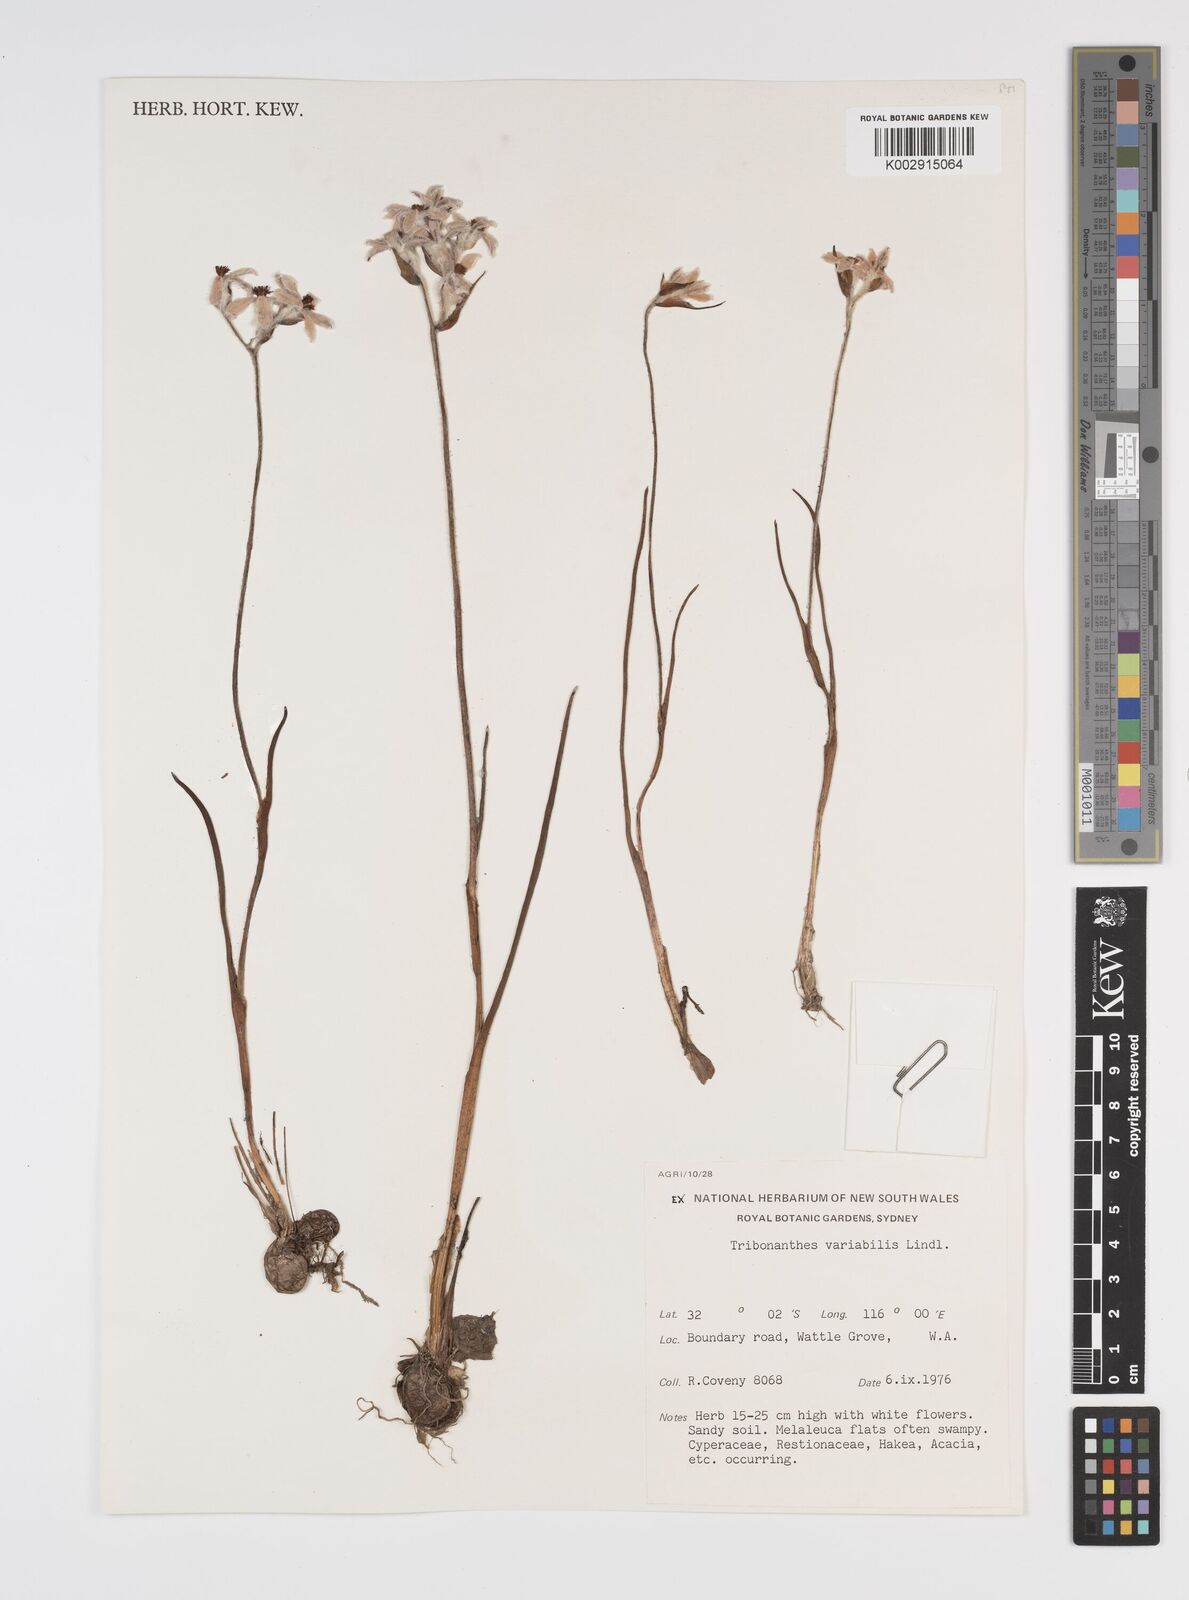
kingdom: Plantae
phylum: Tracheophyta
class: Liliopsida
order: Commelinales
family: Haemodoraceae
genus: Tribonanthes
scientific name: Tribonanthes australis
